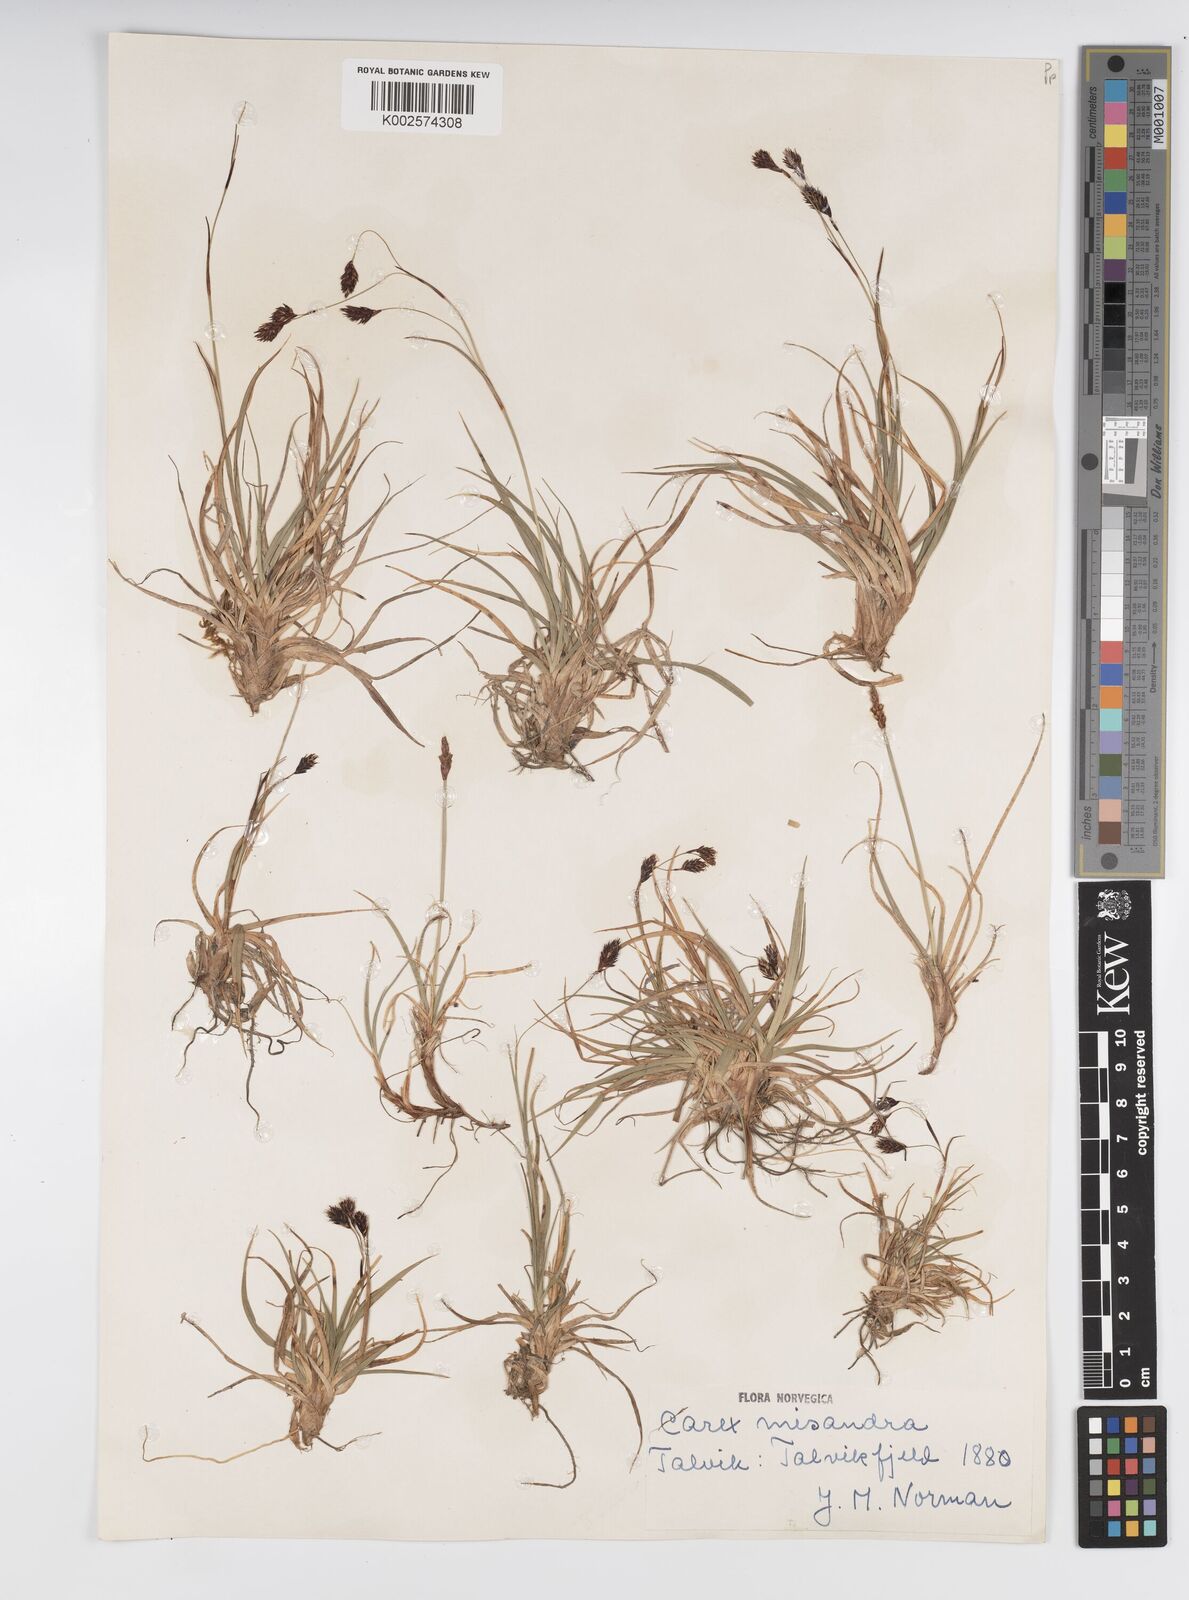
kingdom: Plantae
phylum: Tracheophyta
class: Liliopsida
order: Poales
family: Cyperaceae
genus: Carex
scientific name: Carex fuliginosa
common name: Few-flowered sedge
